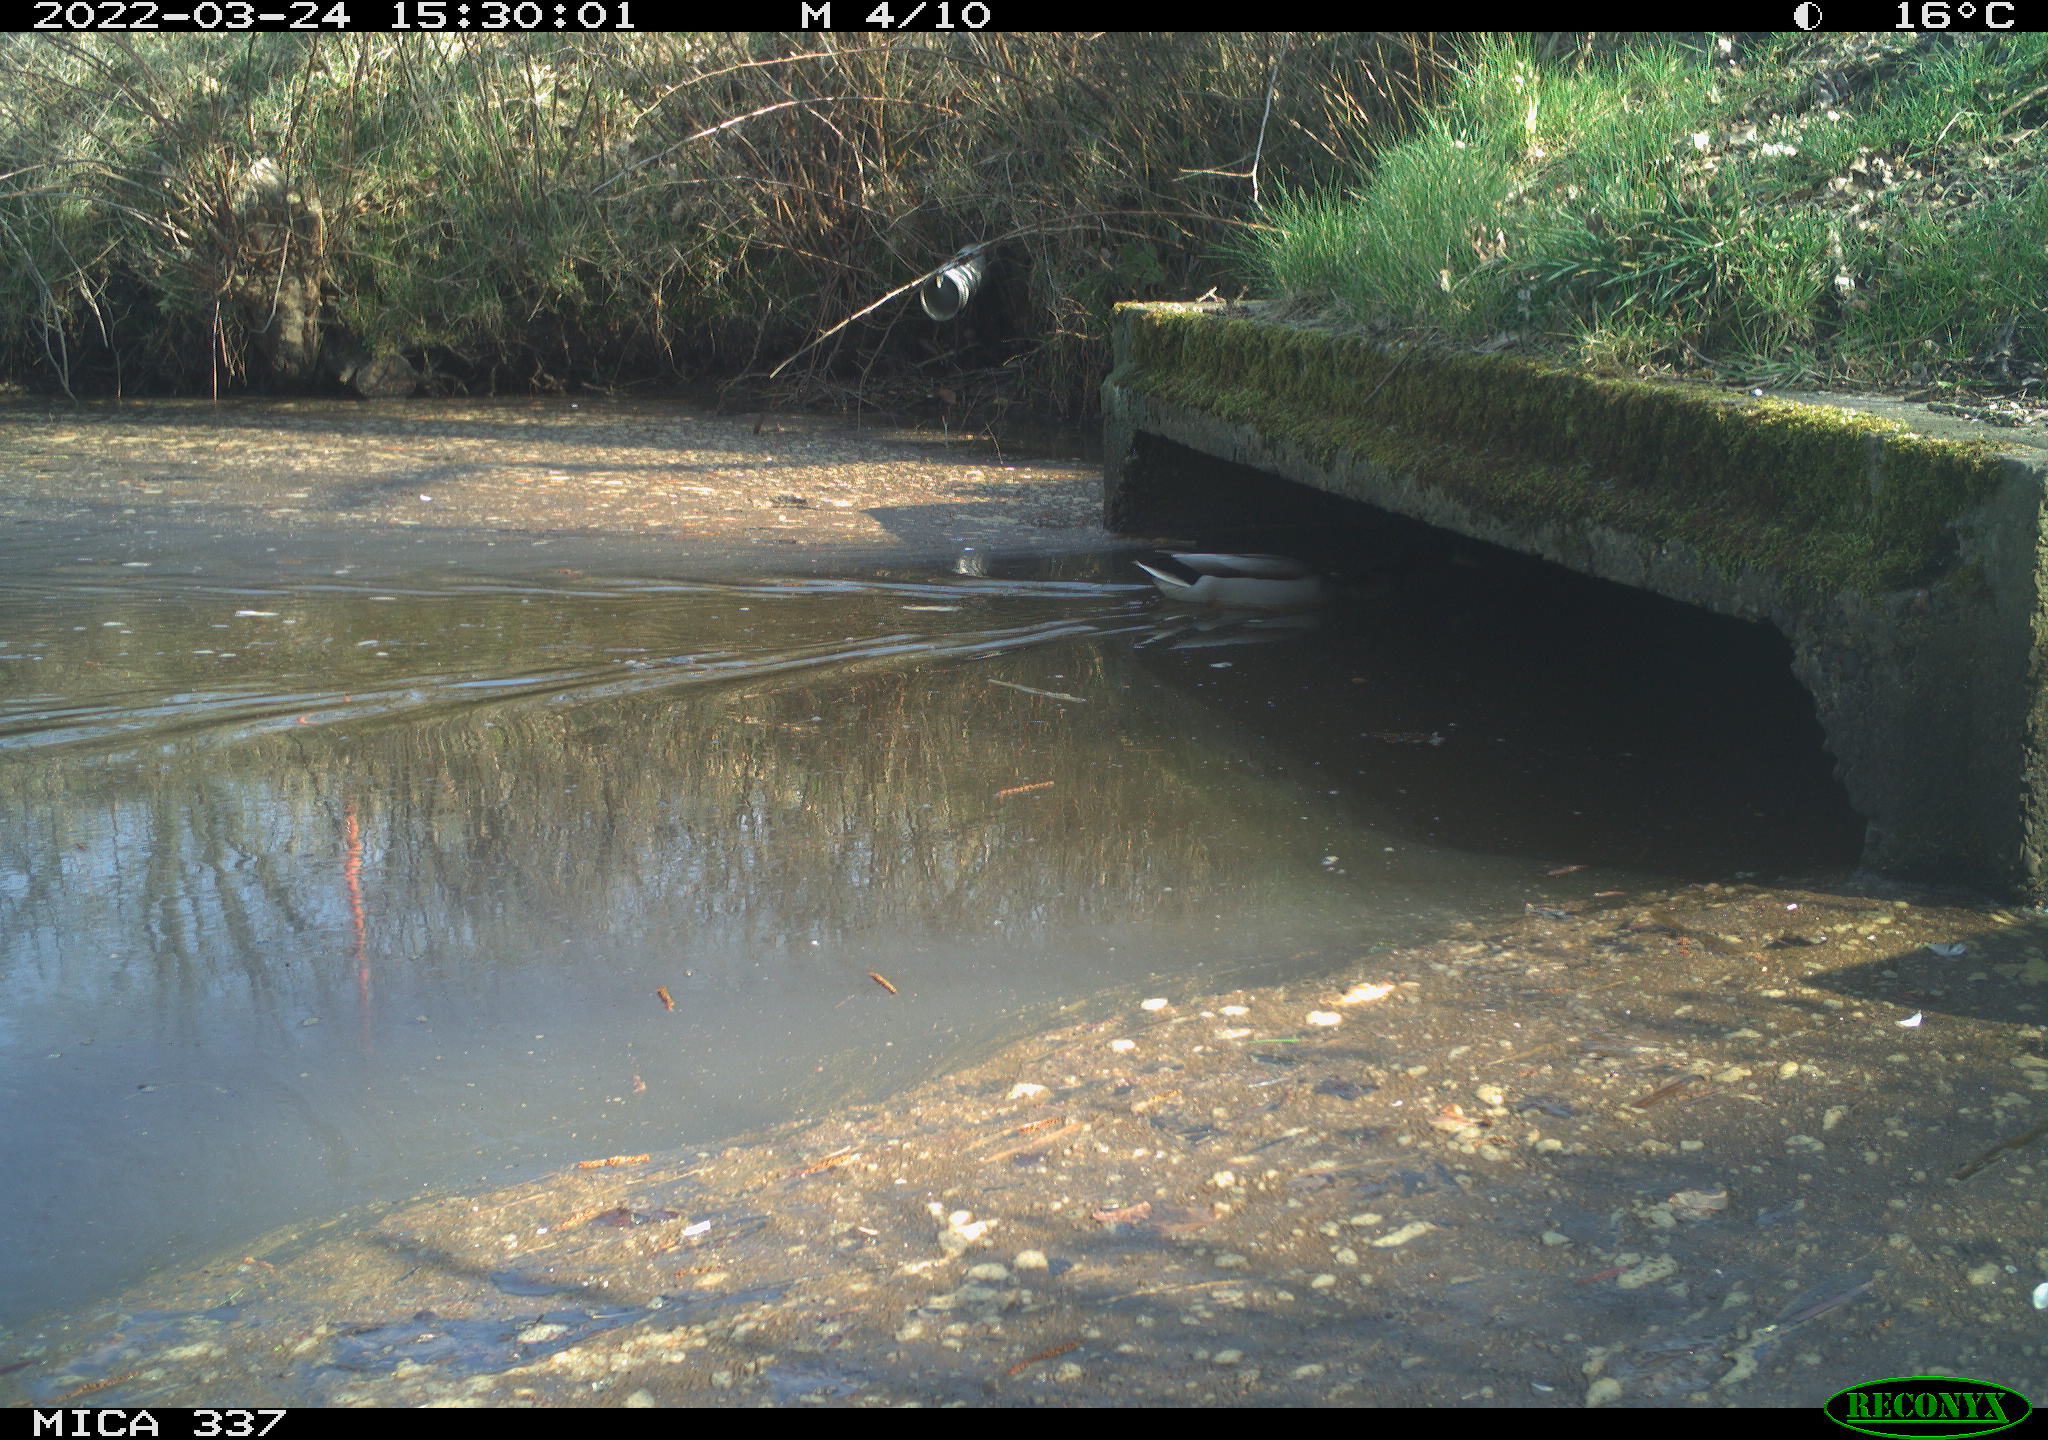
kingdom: Animalia
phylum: Chordata
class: Aves
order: Anseriformes
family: Anatidae
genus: Anas
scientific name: Anas platyrhynchos
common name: Mallard
